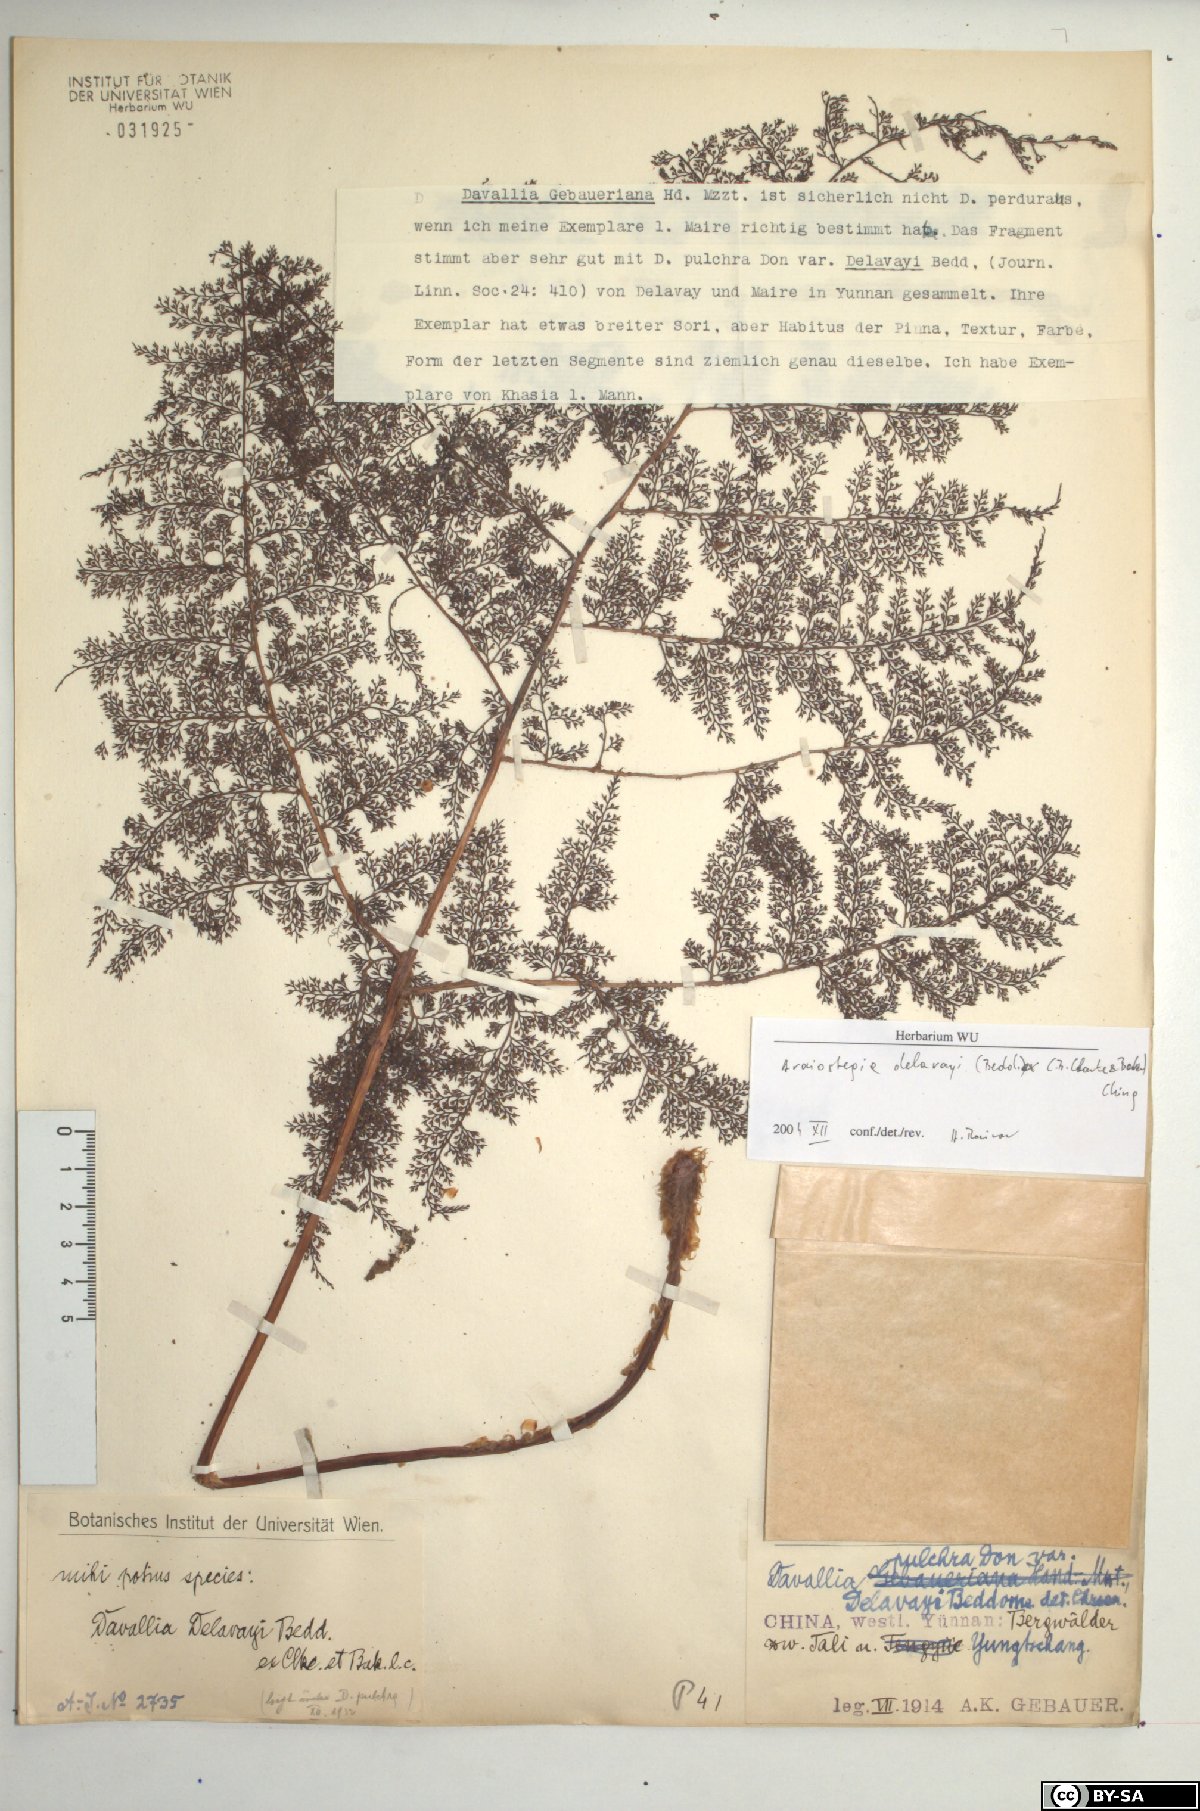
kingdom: Plantae
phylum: Tracheophyta
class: Polypodiopsida
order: Polypodiales
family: Davalliaceae
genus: Davallodes
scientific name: Davallodes beddomei
